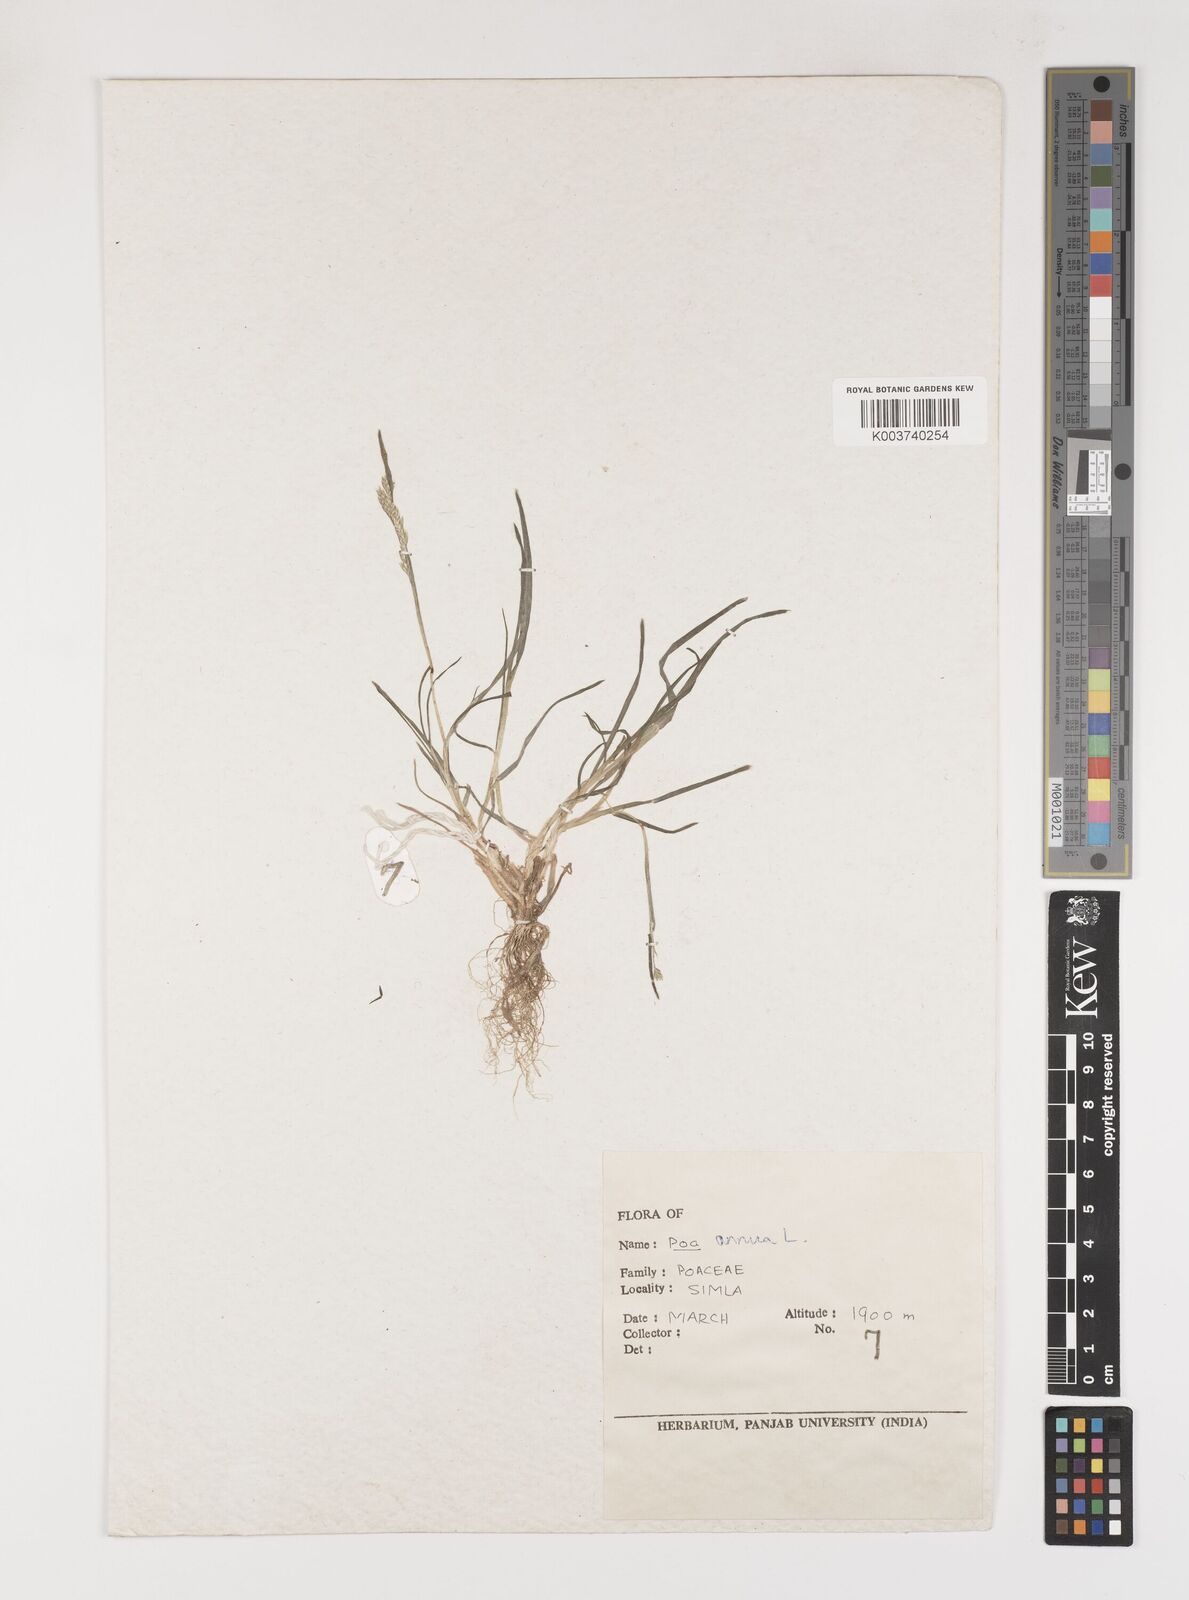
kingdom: Plantae
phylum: Tracheophyta
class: Liliopsida
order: Poales
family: Poaceae
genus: Poa
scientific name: Poa annua
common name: Annual bluegrass
